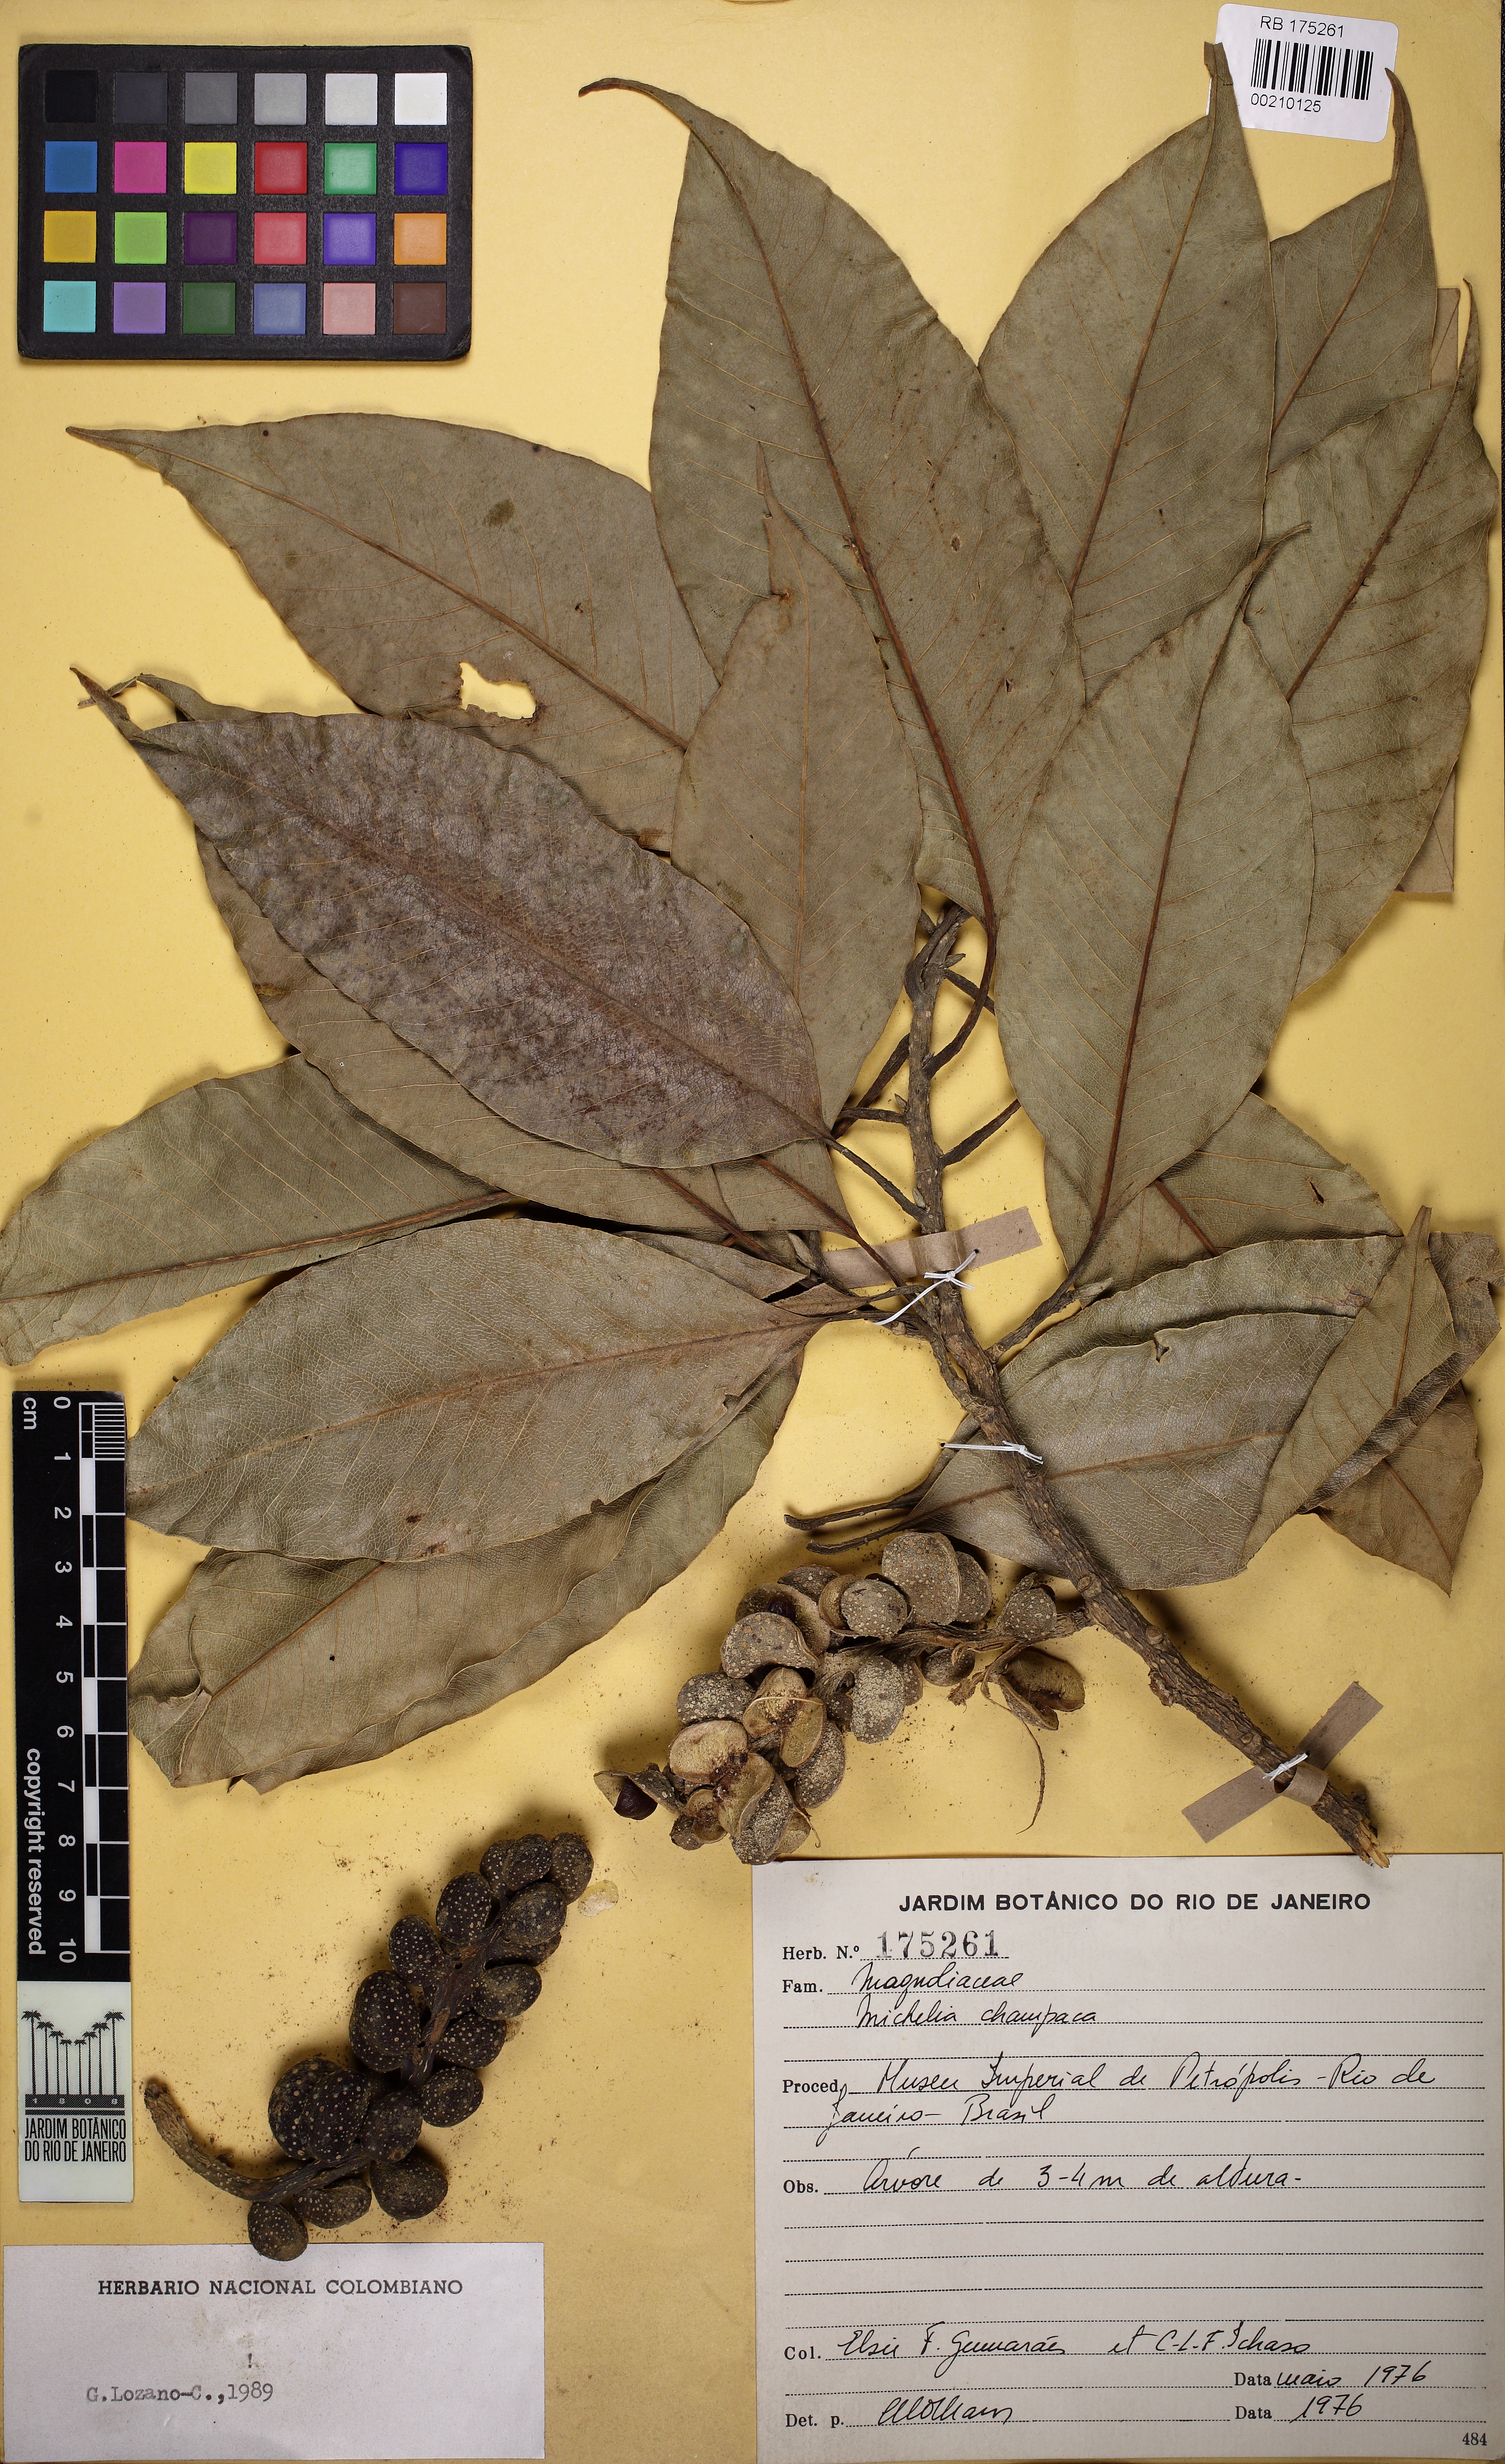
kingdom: Plantae
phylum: Tracheophyta
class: Magnoliopsida
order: Magnoliales
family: Magnoliaceae
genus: Magnolia
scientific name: Magnolia champaca
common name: Champak
